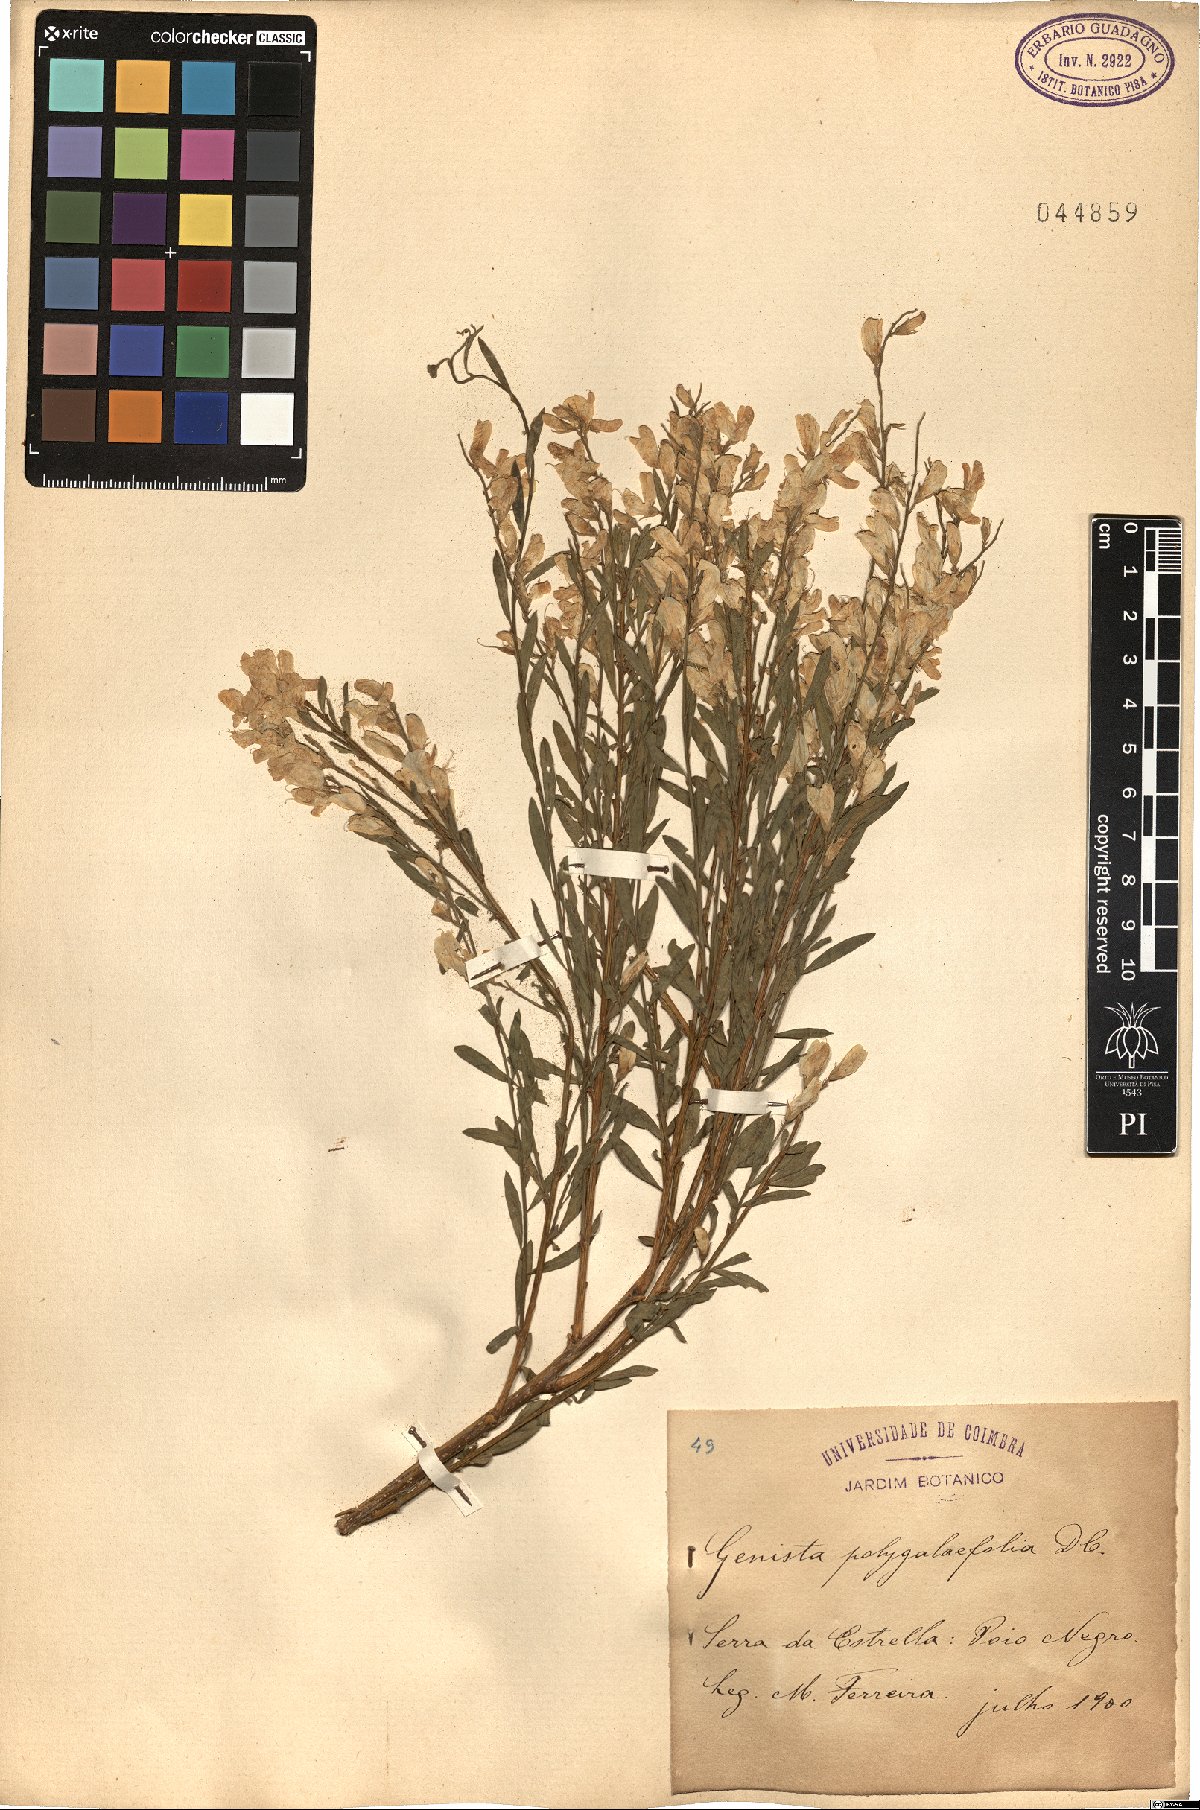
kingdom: Plantae
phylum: Tracheophyta
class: Magnoliopsida
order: Fabales
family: Fabaceae
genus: Genista
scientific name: Genista polygalaefolia
